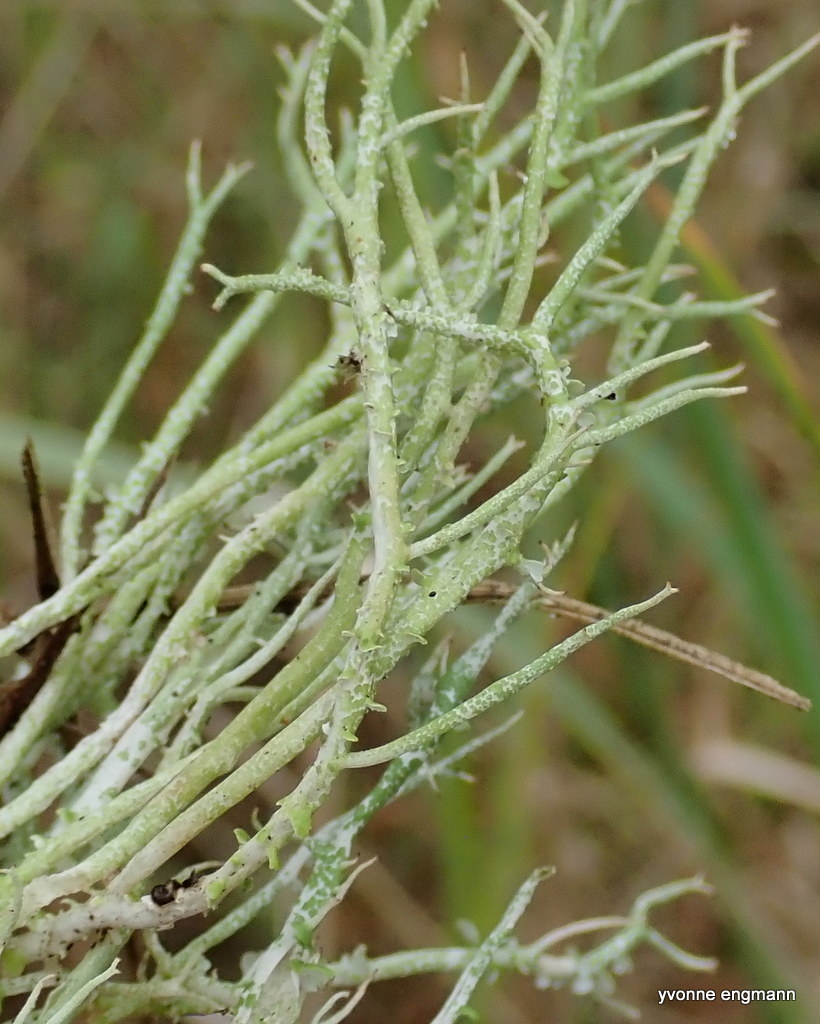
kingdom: Fungi
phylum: Ascomycota
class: Lecanoromycetes
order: Lecanorales
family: Cladoniaceae
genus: Cladonia
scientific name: Cladonia rangiformis
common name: spættet bægerlav
